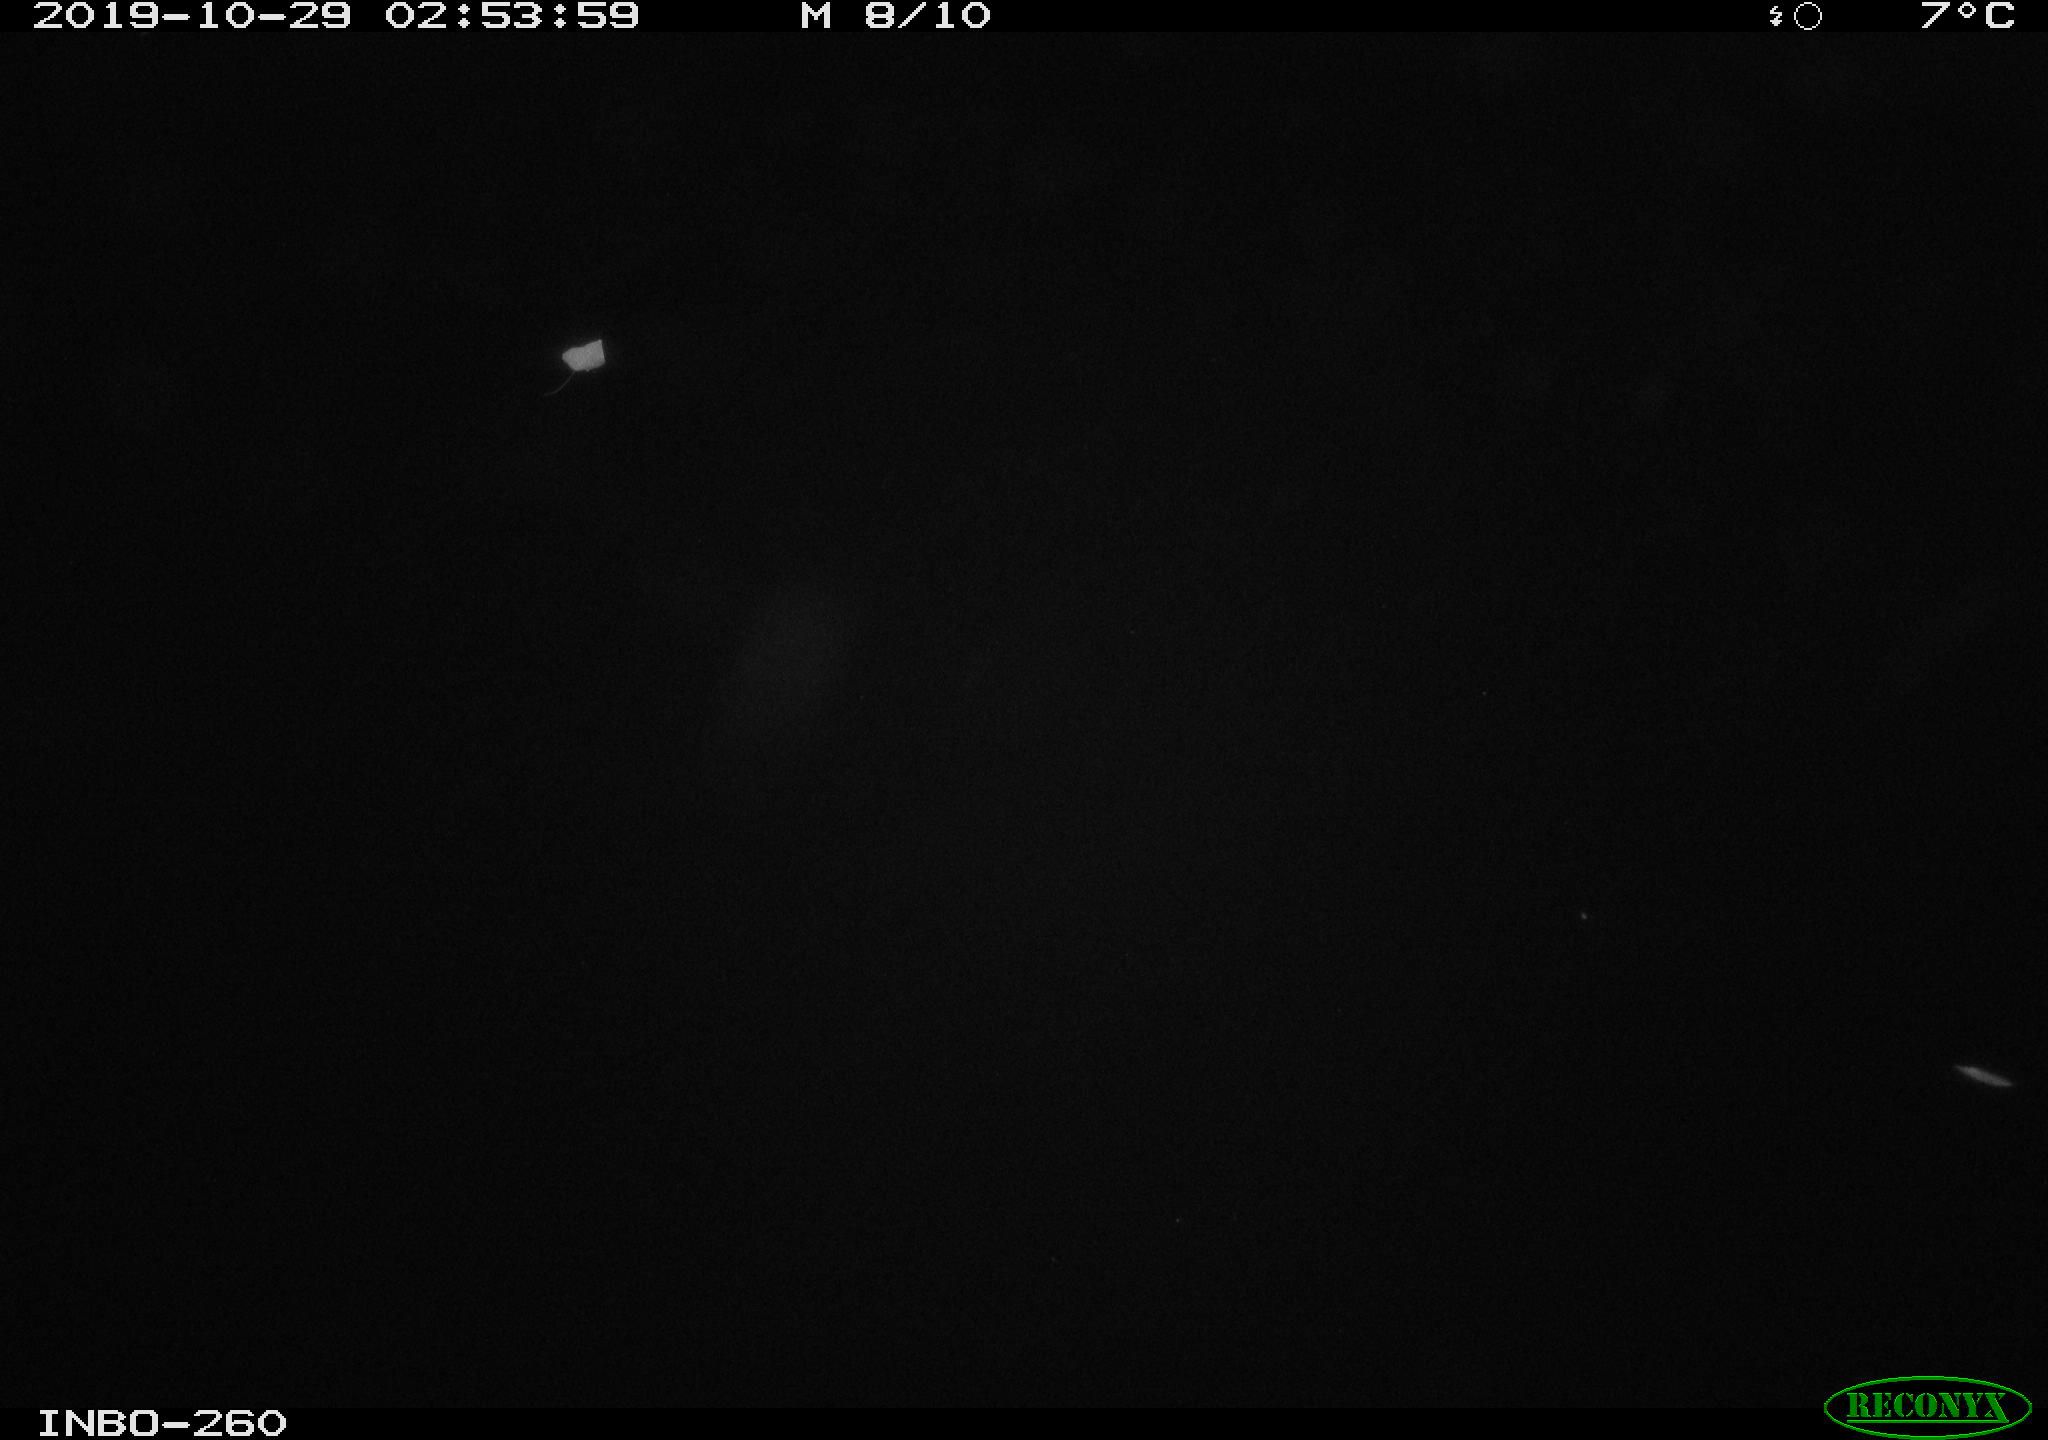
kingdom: Animalia
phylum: Chordata
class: Mammalia
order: Rodentia
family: Muridae
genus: Rattus
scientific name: Rattus norvegicus
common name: Brown rat
